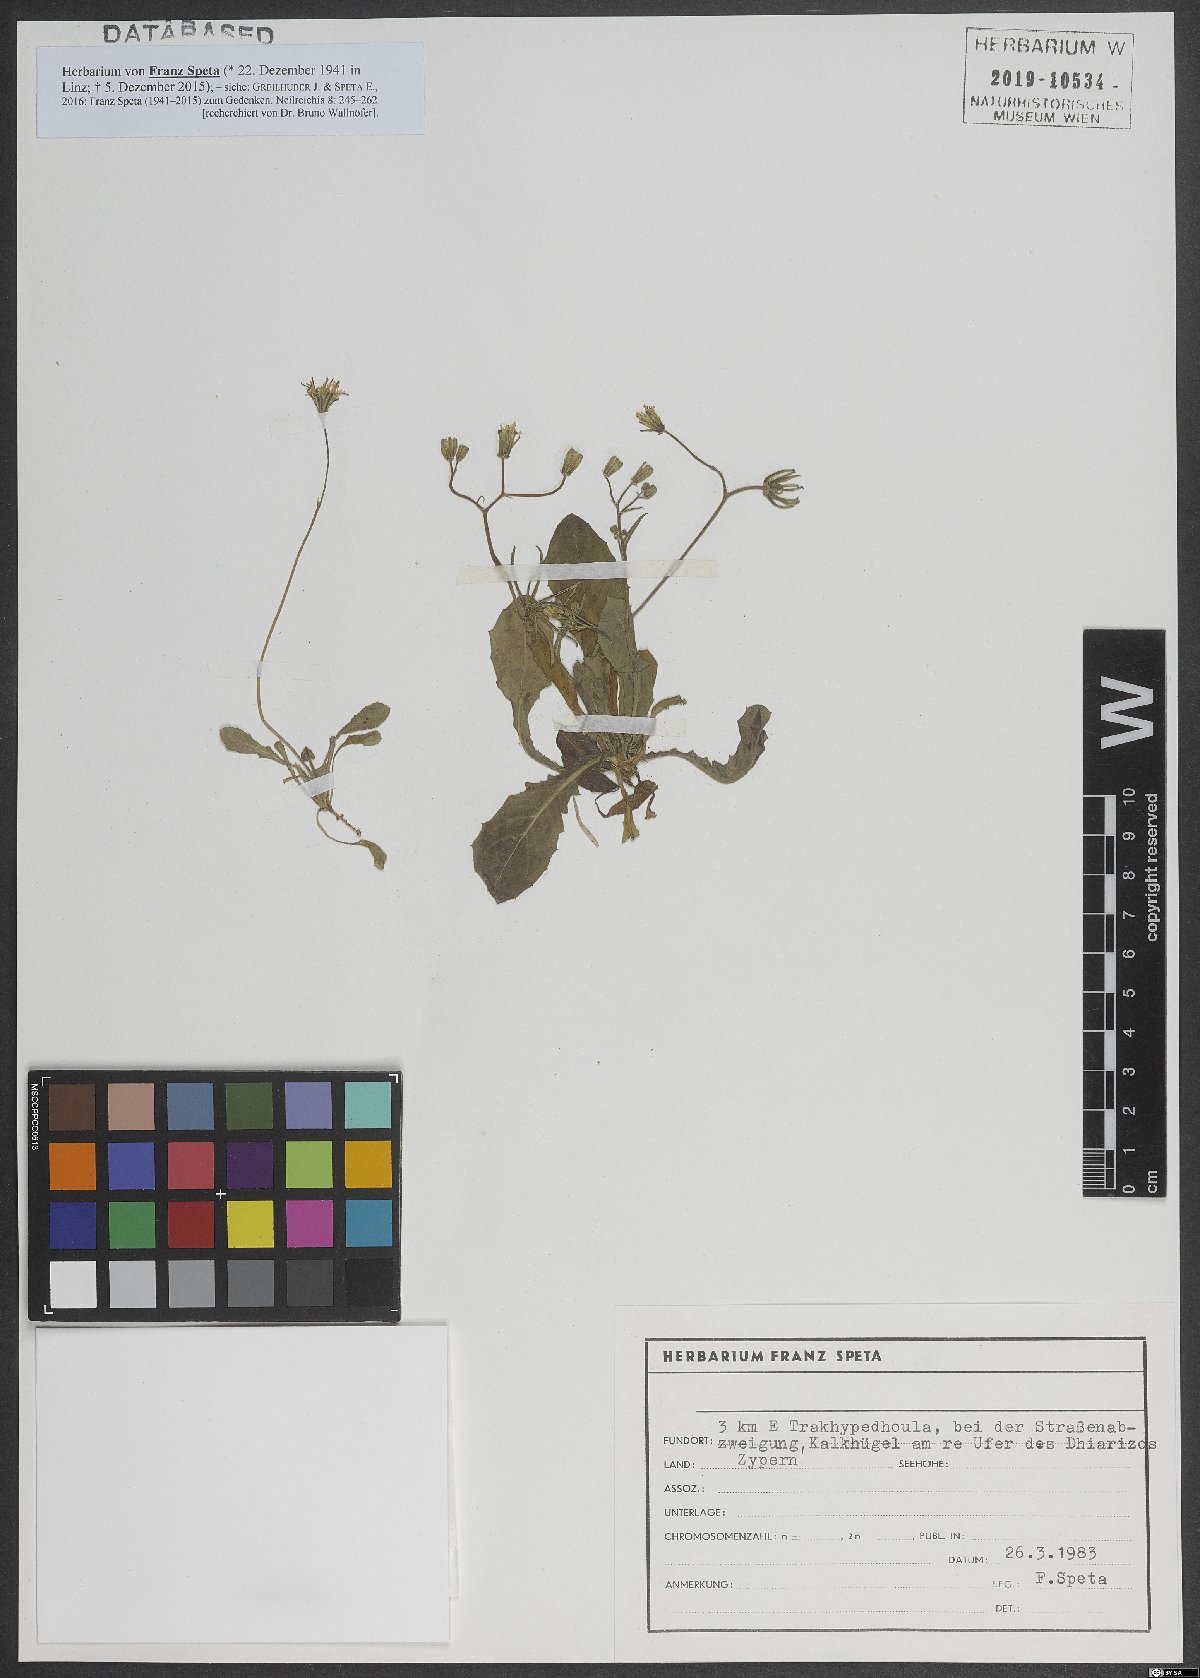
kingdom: Plantae
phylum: Tracheophyta
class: Magnoliopsida
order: Asterales
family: Asteraceae
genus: Rhagadiolus
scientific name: Rhagadiolus
